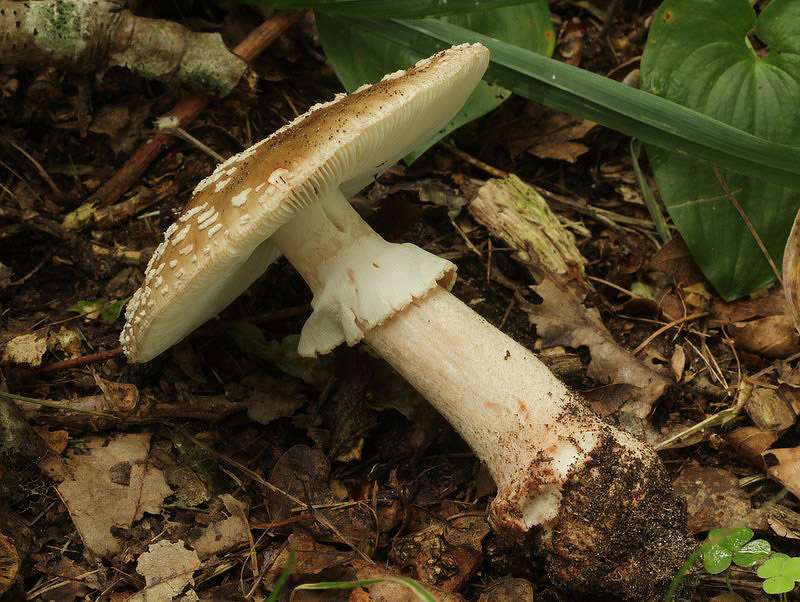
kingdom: Fungi
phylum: Basidiomycota
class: Agaricomycetes
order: Agaricales
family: Amanitaceae
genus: Amanita
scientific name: Amanita rubescens
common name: rødmende fluesvamp
